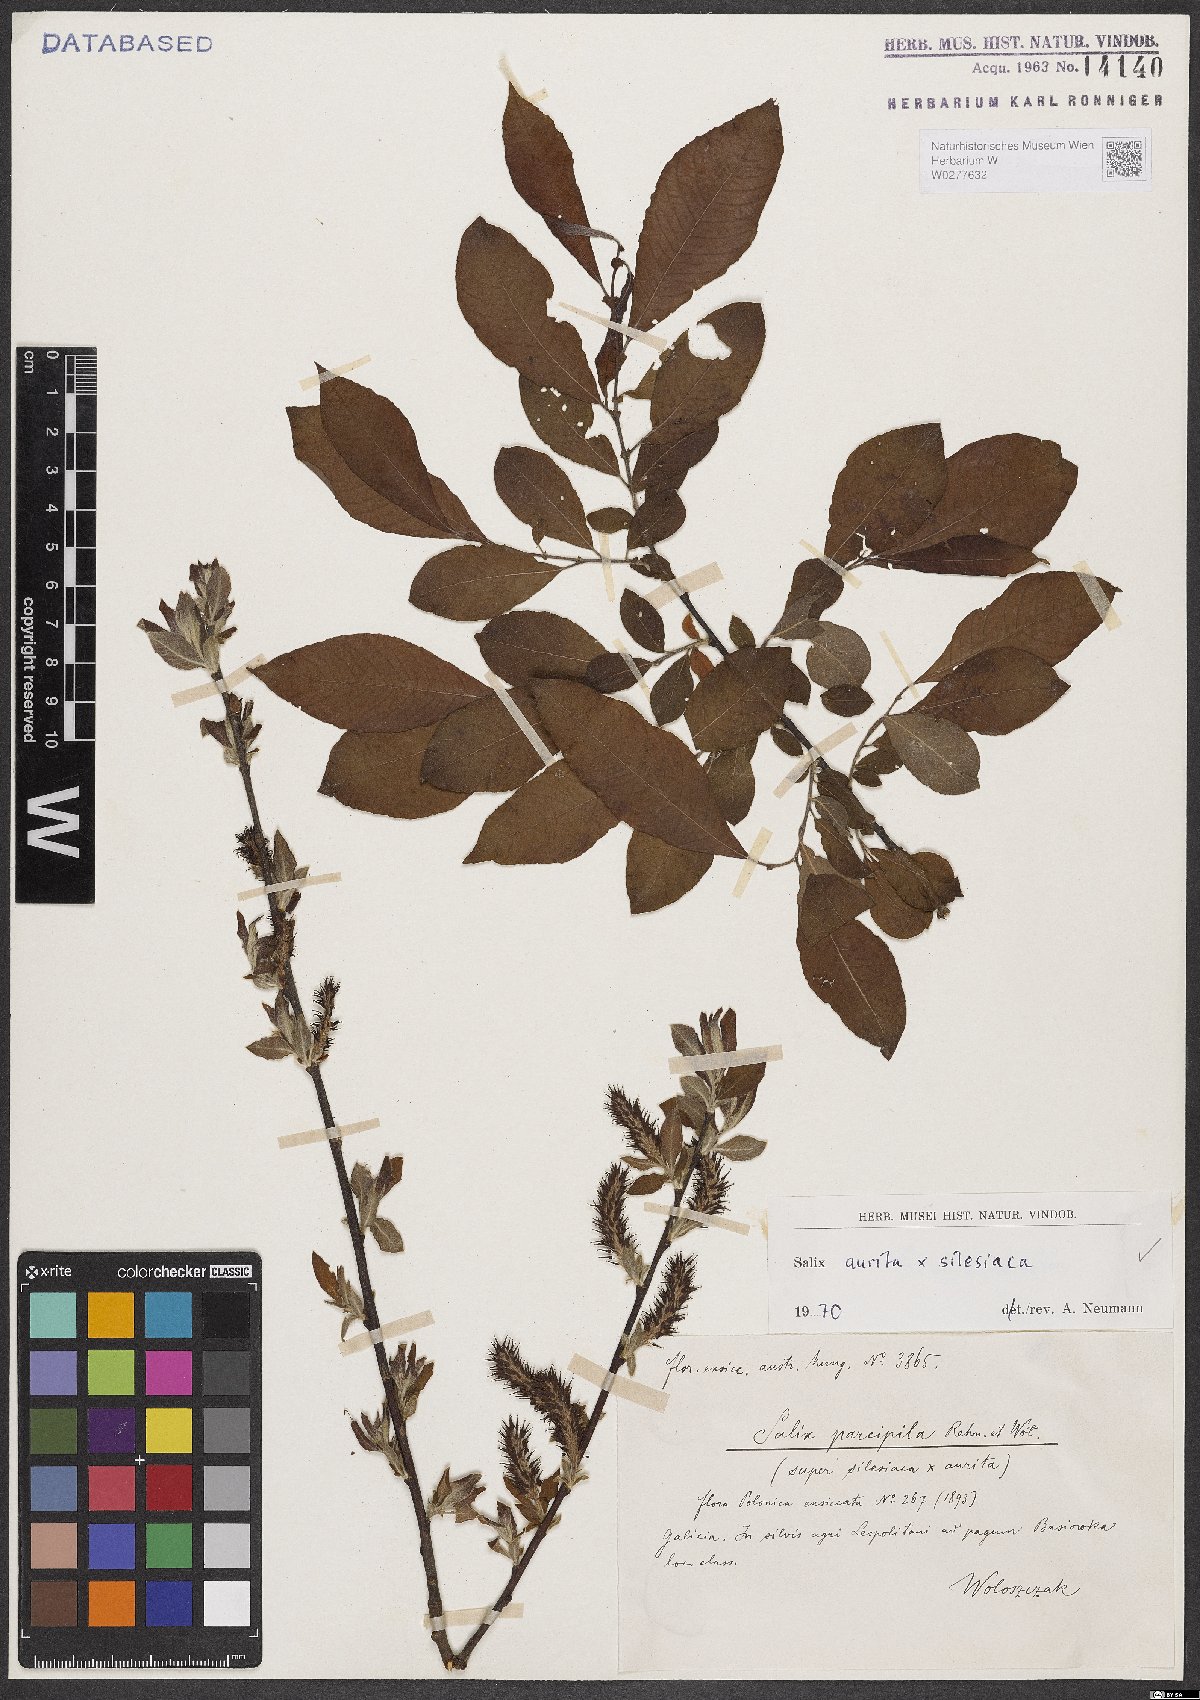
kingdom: Plantae
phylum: Tracheophyta
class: Magnoliopsida
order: Malpighiales
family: Salicaceae
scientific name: Salicaceae
